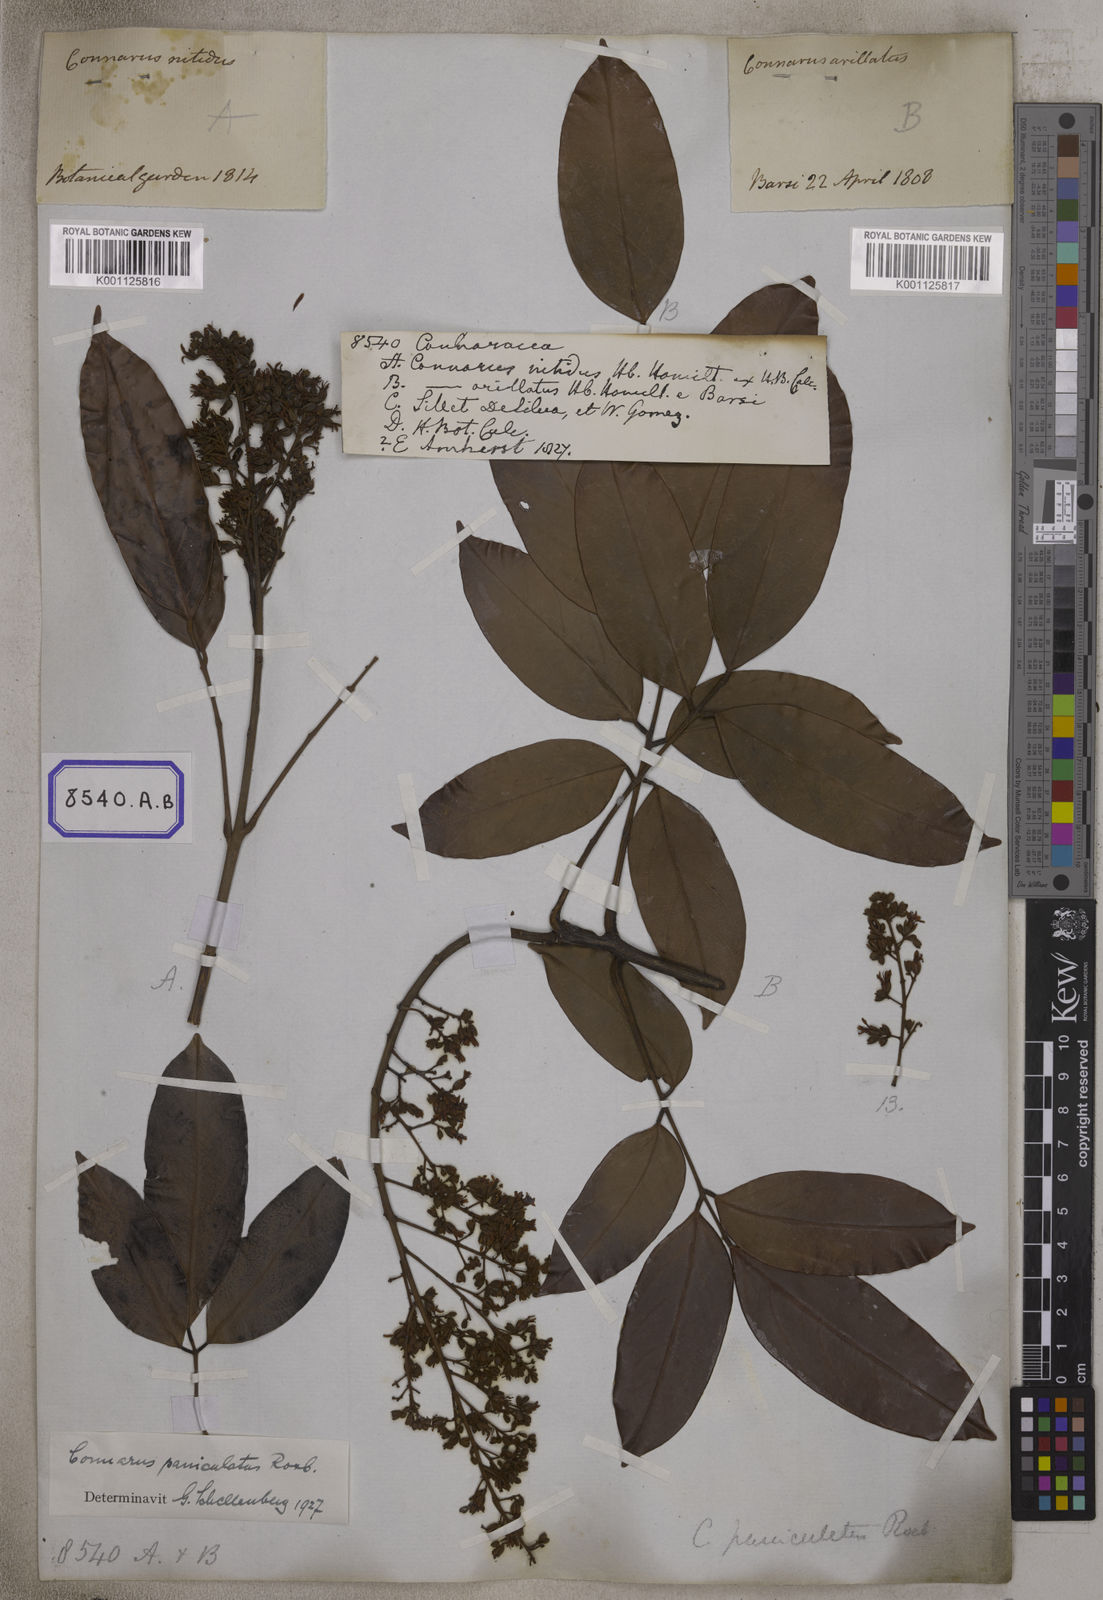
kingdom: Plantae
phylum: Tracheophyta
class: Magnoliopsida
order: Oxalidales
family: Connaraceae
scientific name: Connaraceae
